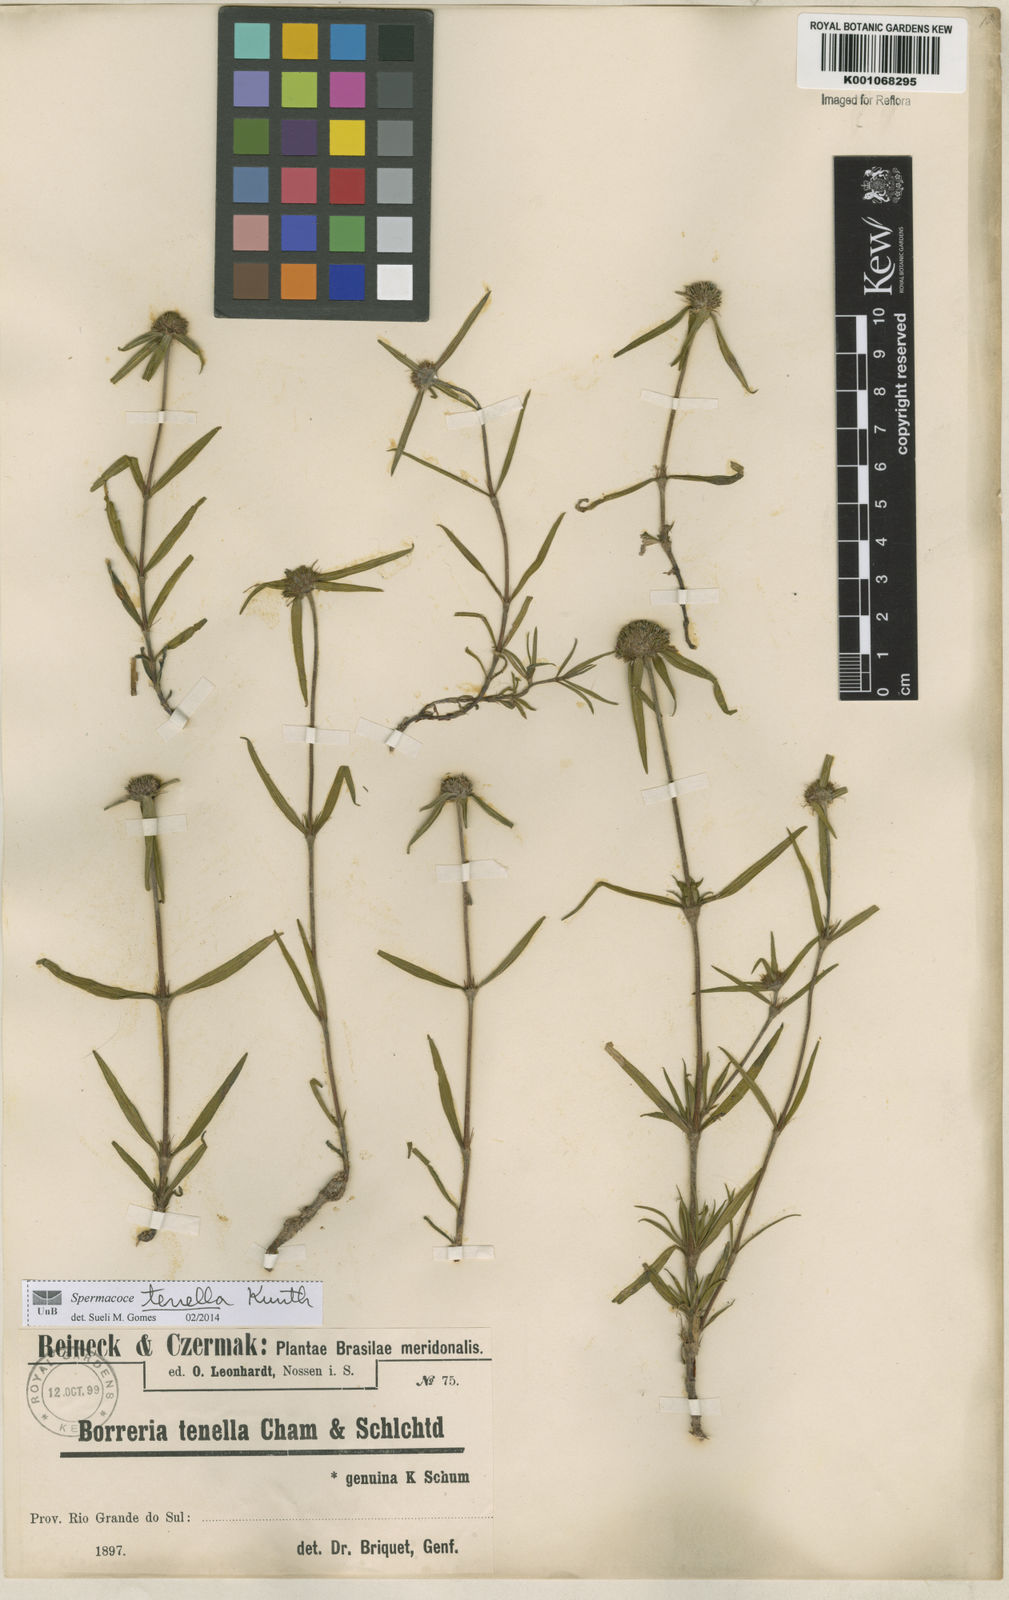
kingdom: Plantae
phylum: Tracheophyta
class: Magnoliopsida
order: Gentianales
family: Rubiaceae
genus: Spermacoce
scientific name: Spermacoce orinocensis
